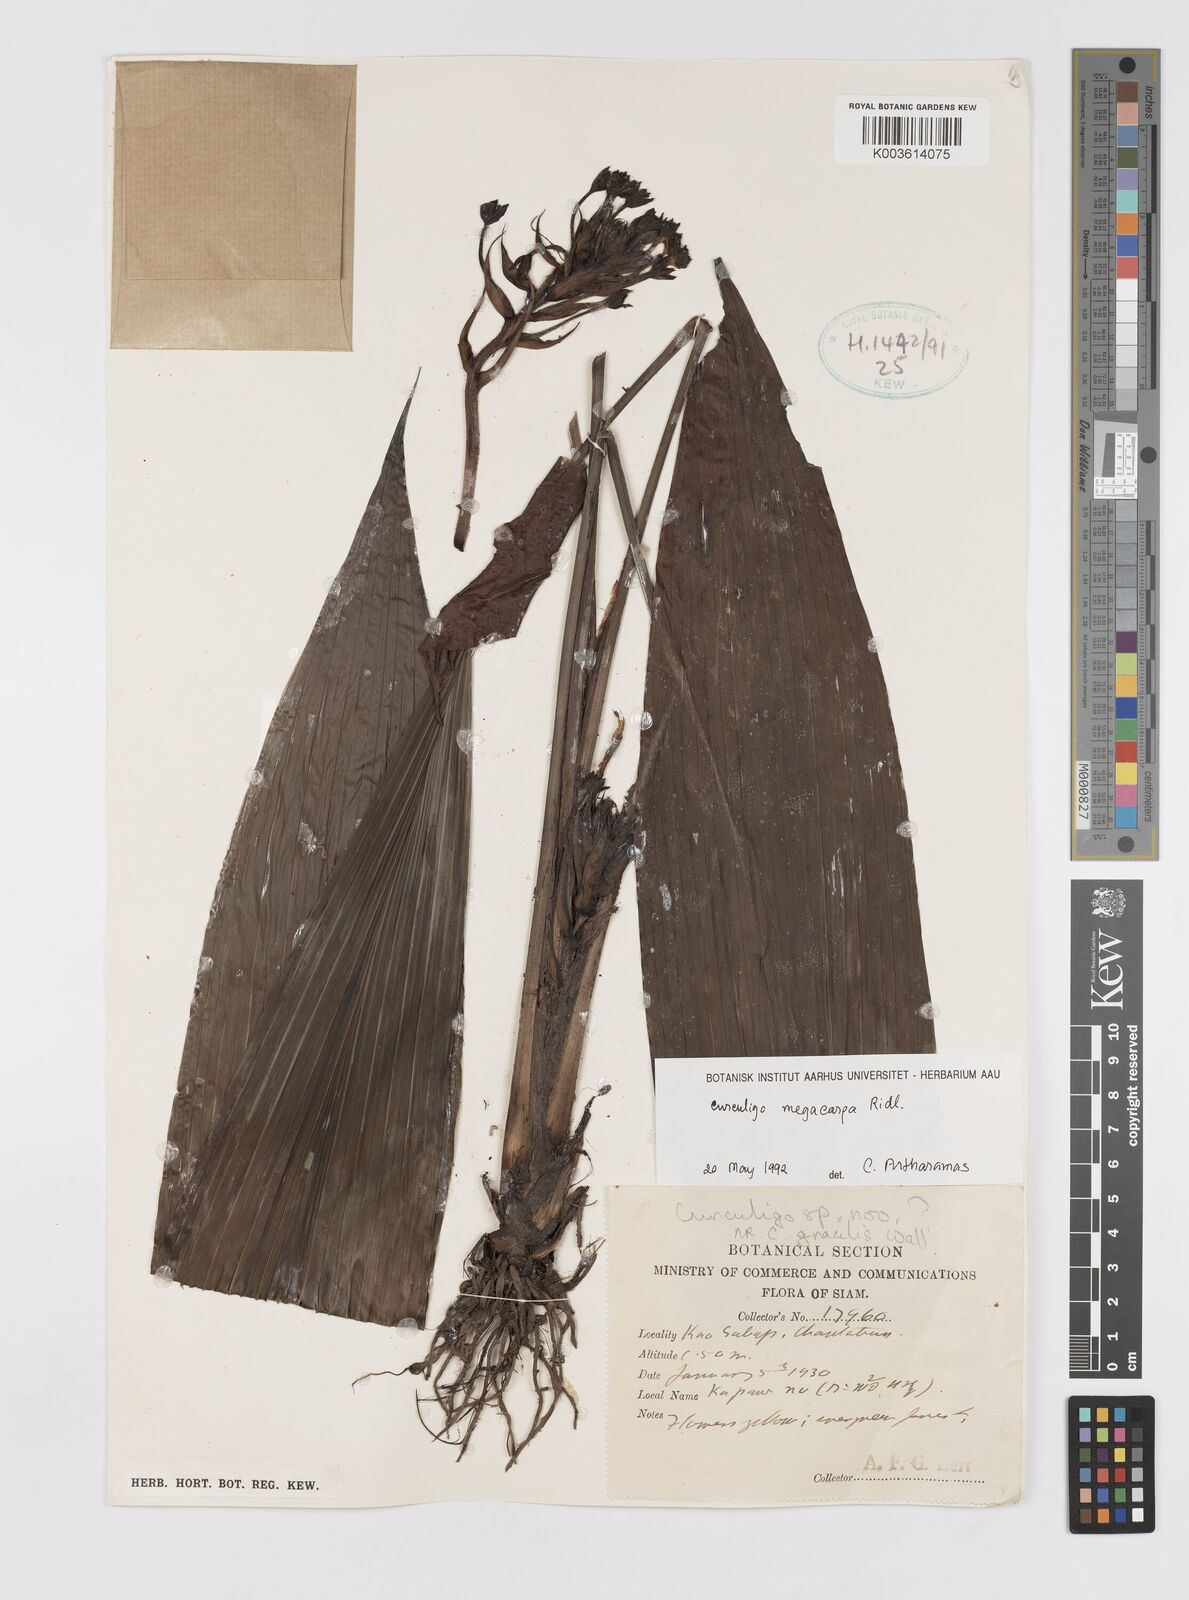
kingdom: Plantae
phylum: Tracheophyta
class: Liliopsida
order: Asparagales
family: Hypoxidaceae
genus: Curculigo
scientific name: Curculigo latifolia
